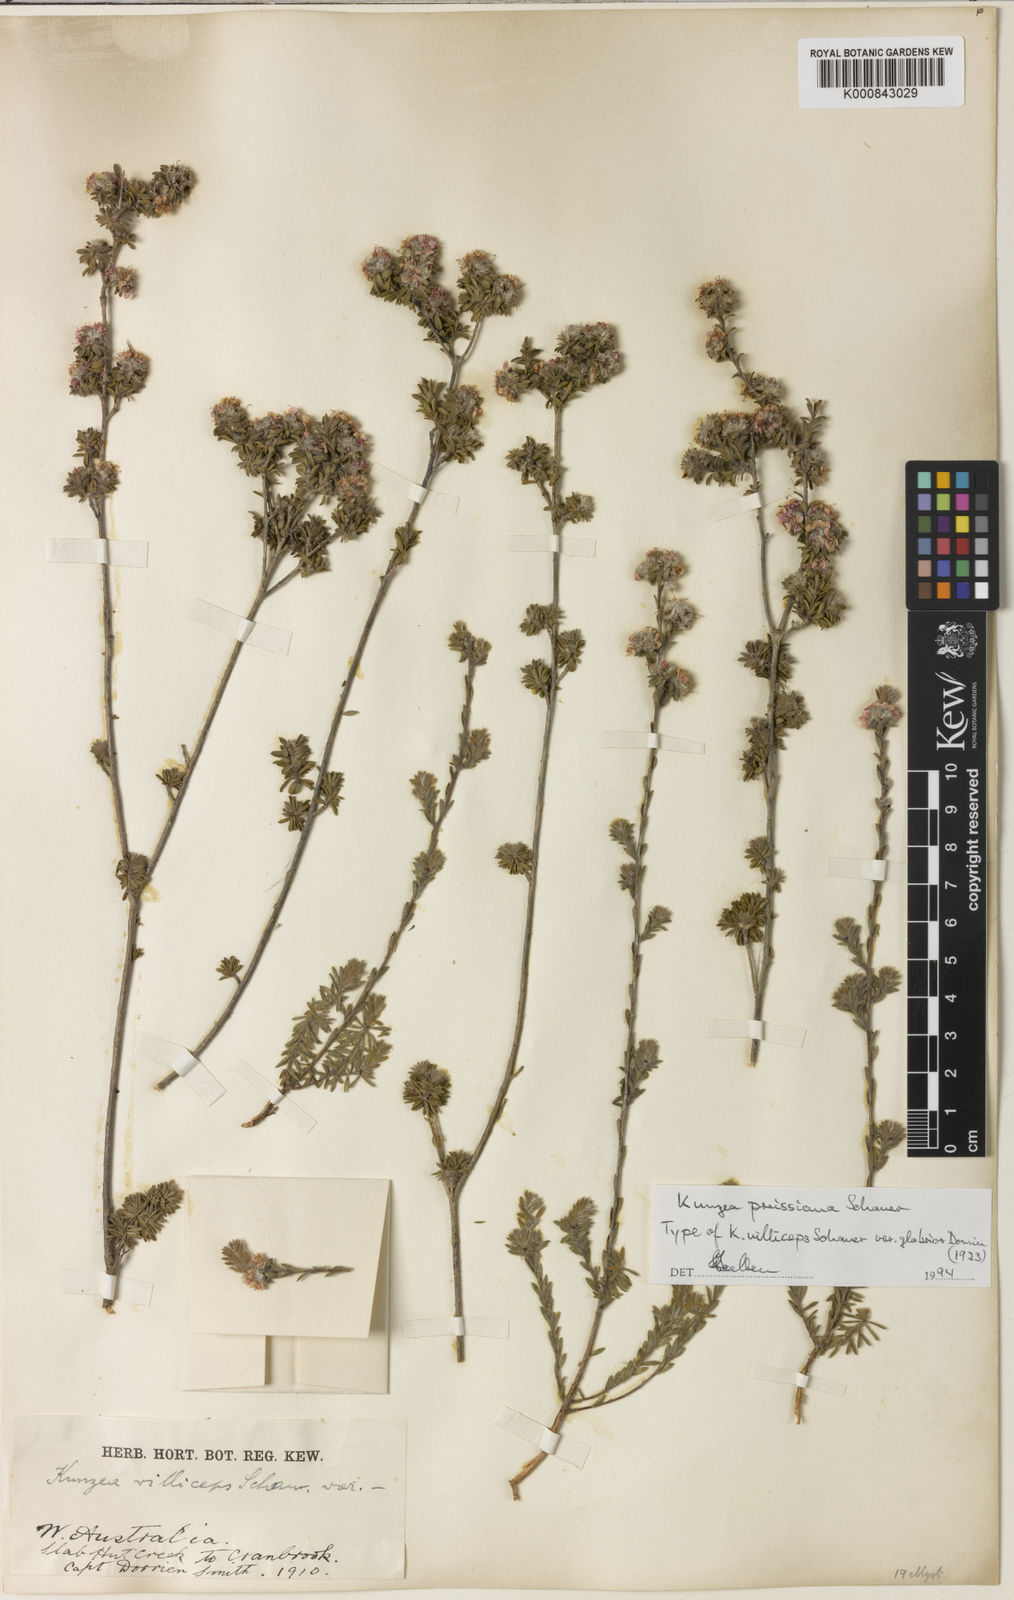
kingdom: Plantae
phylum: Tracheophyta
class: Magnoliopsida
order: Myrtales
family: Myrtaceae
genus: Kunzea
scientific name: Kunzea preissiana
